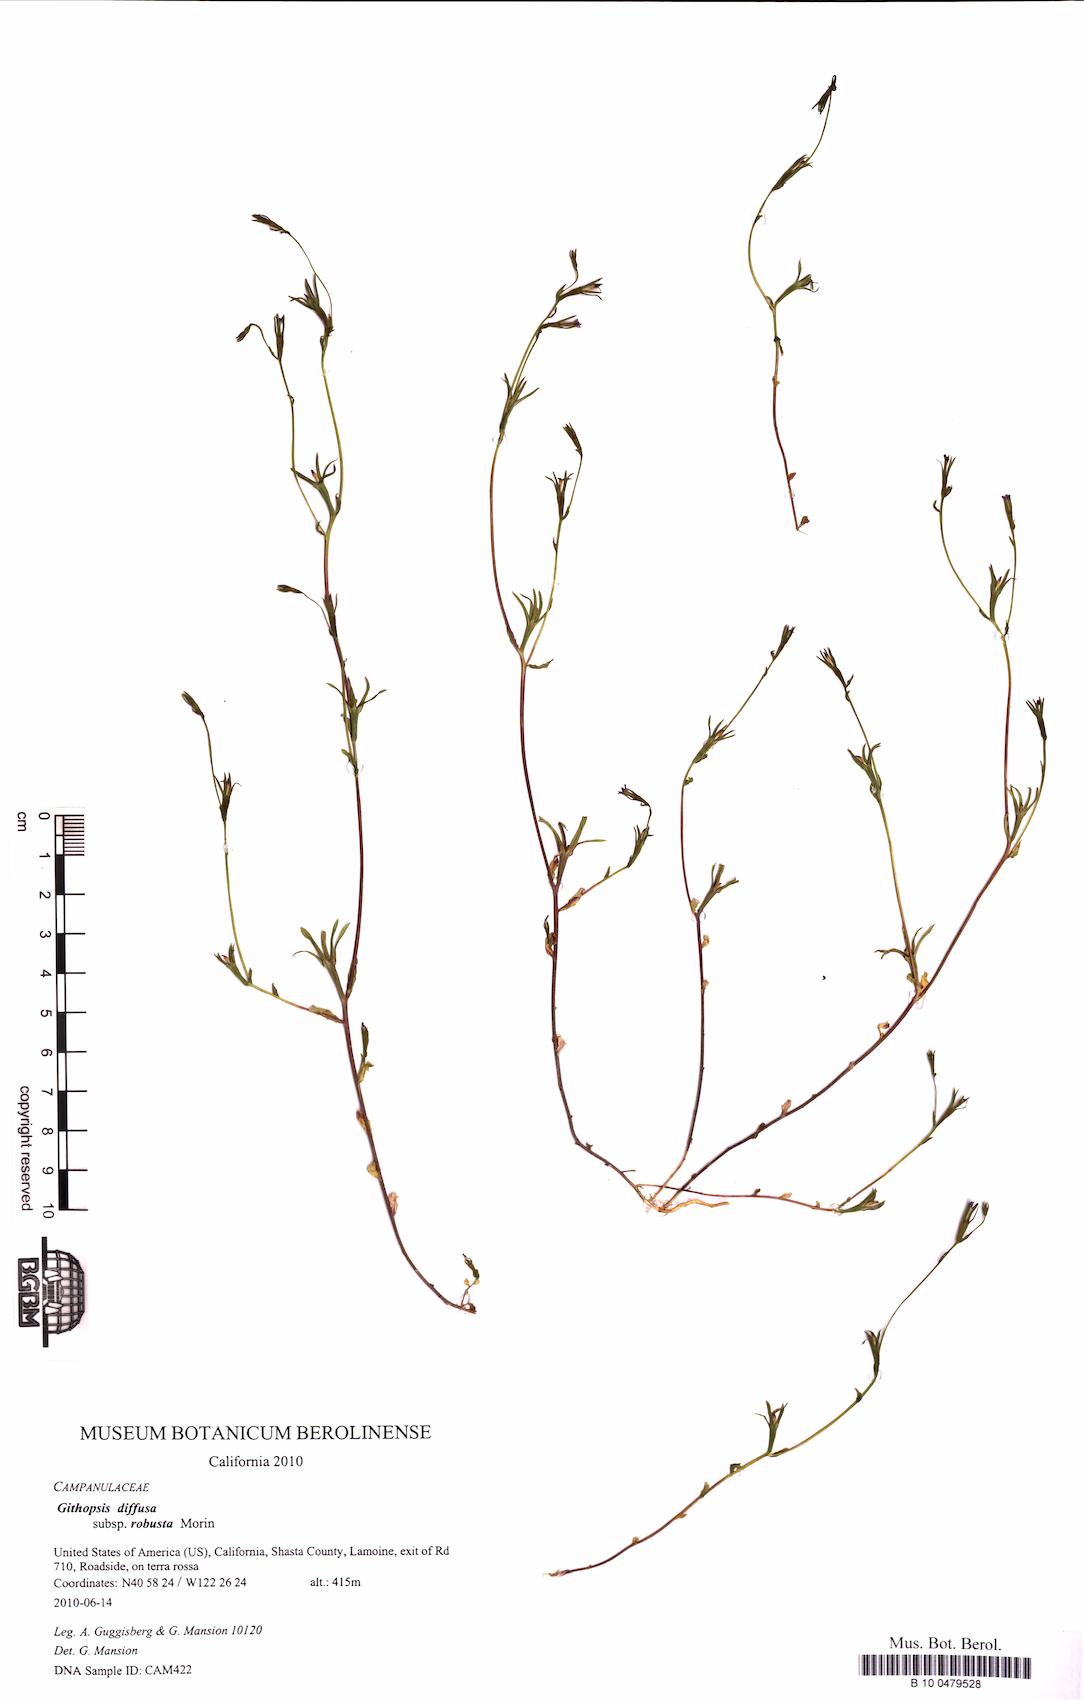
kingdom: Plantae
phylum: Tracheophyta
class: Magnoliopsida
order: Asterales
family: Campanulaceae
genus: Githopsis
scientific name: Githopsis diffusa
